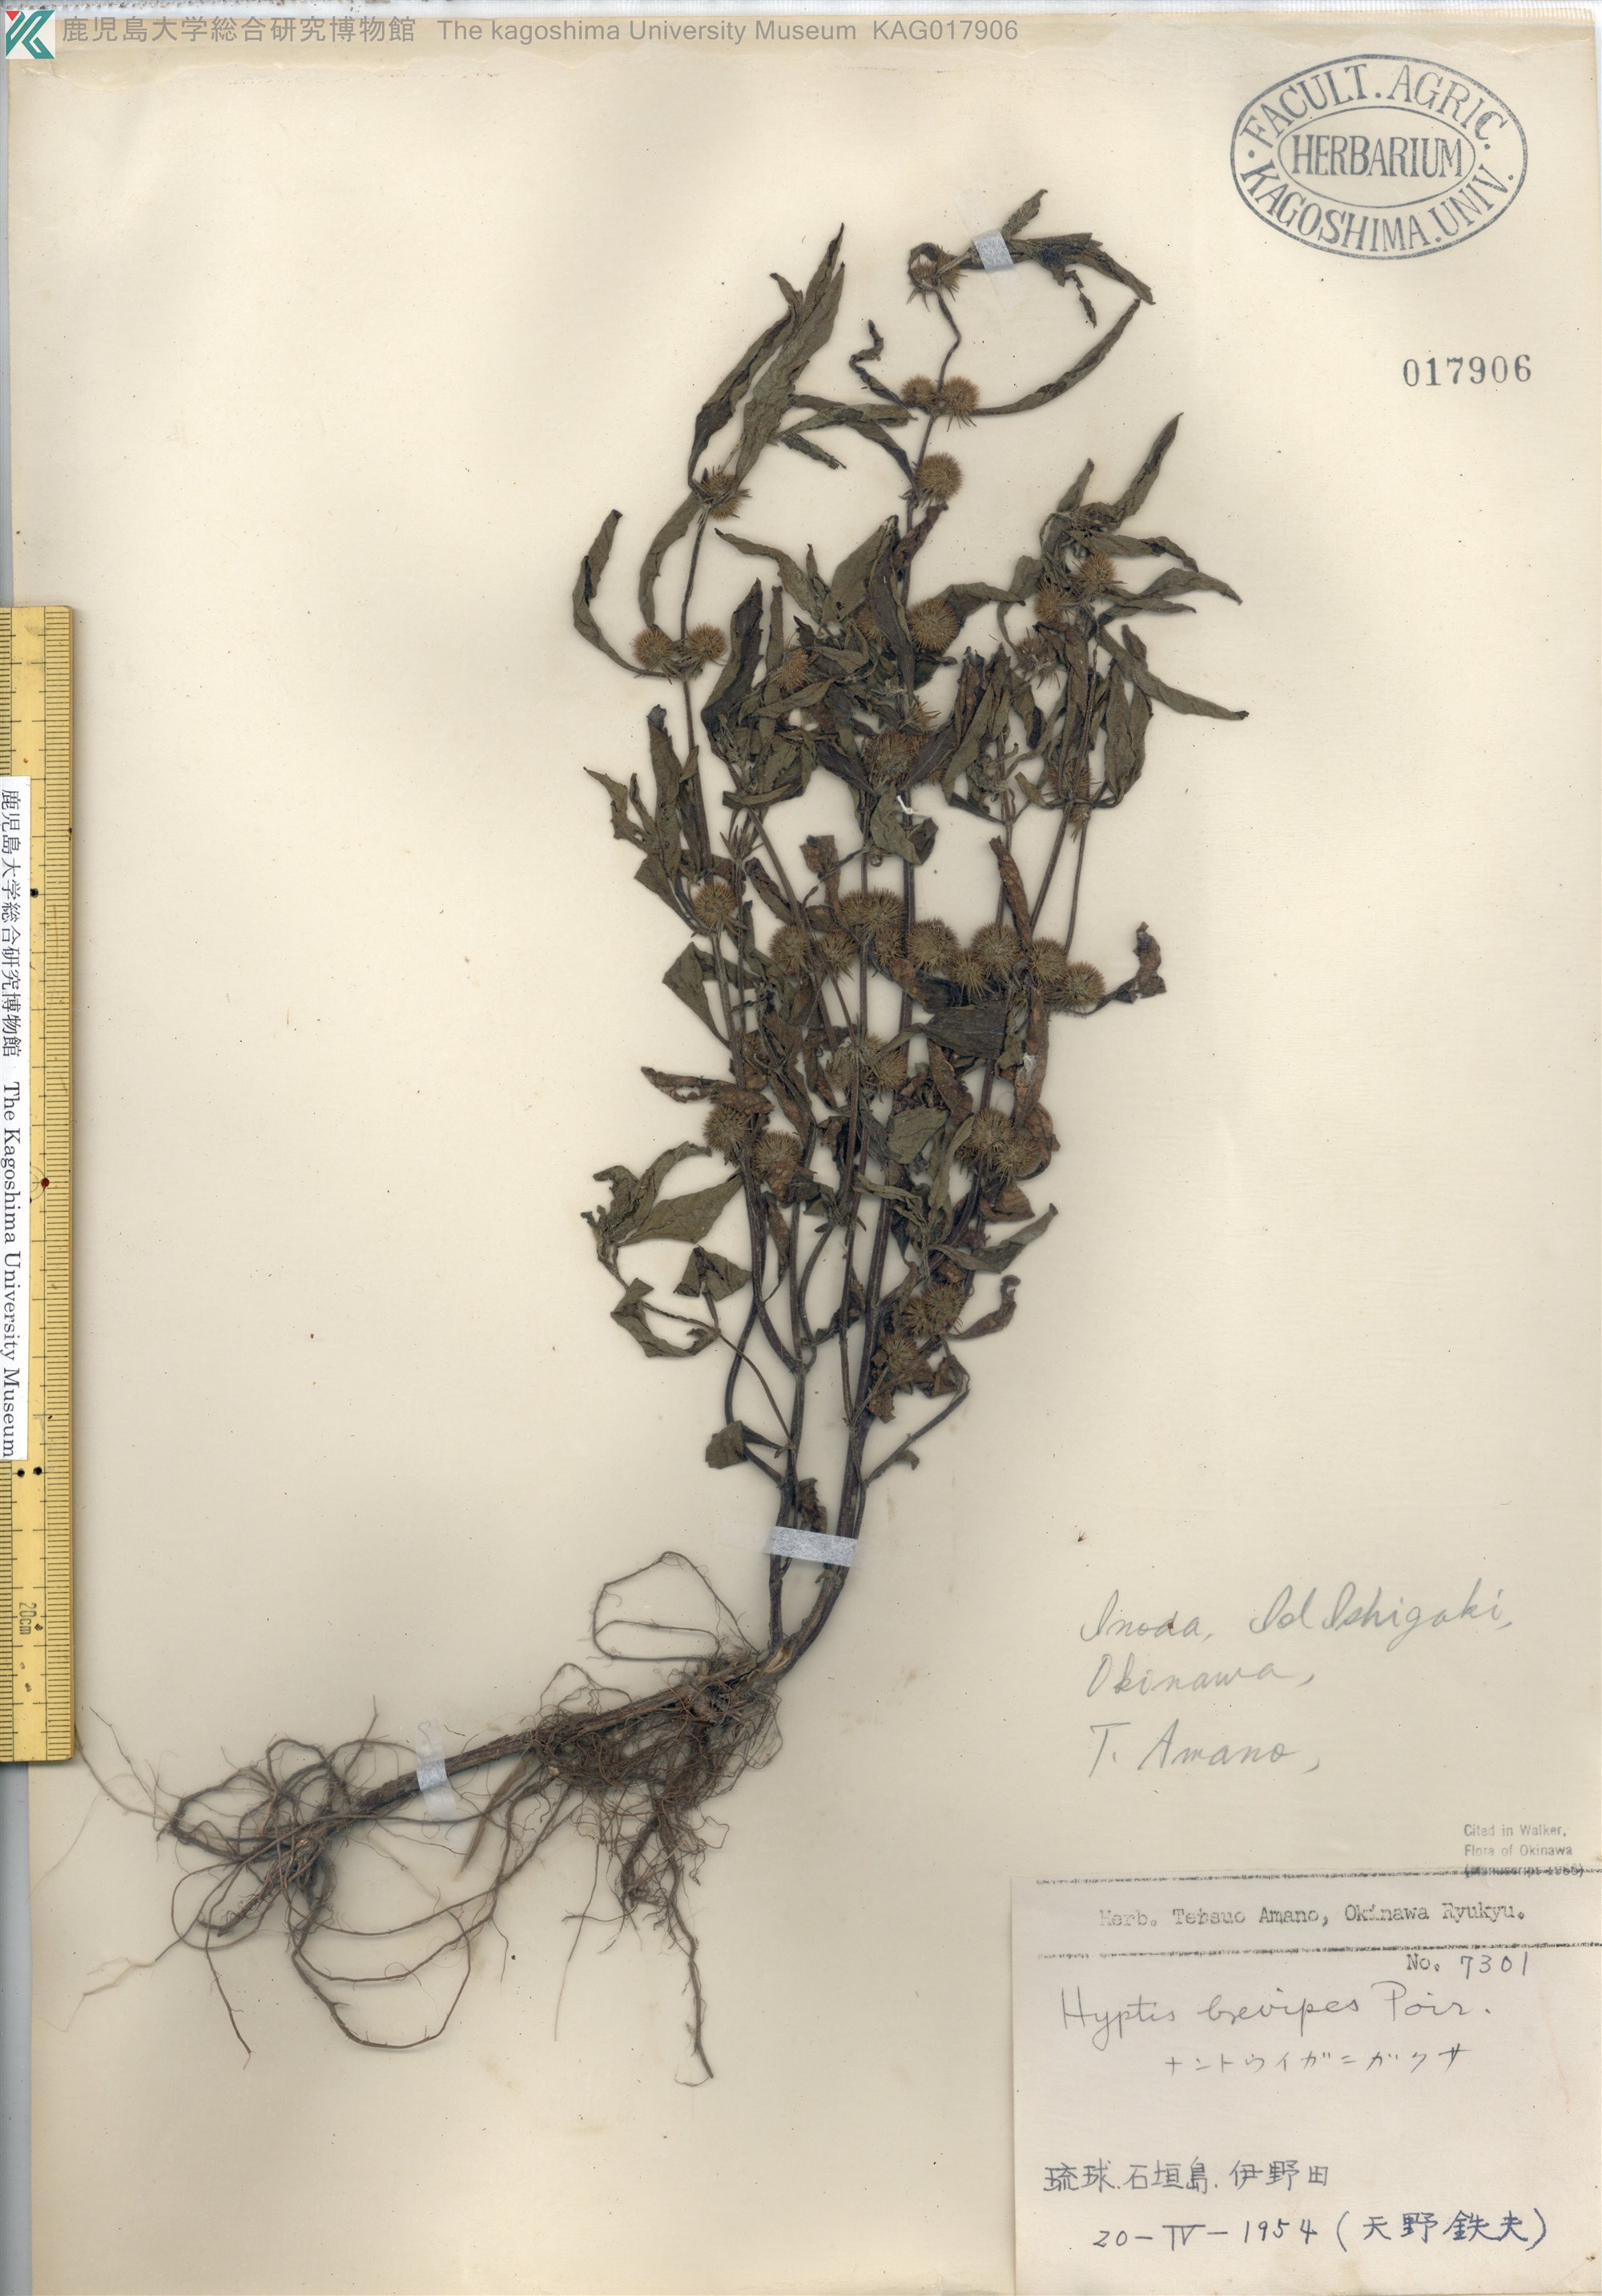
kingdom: Plantae
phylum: Tracheophyta
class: Magnoliopsida
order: Lamiales
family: Lamiaceae
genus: Hyptis
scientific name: Hyptis brevipes
